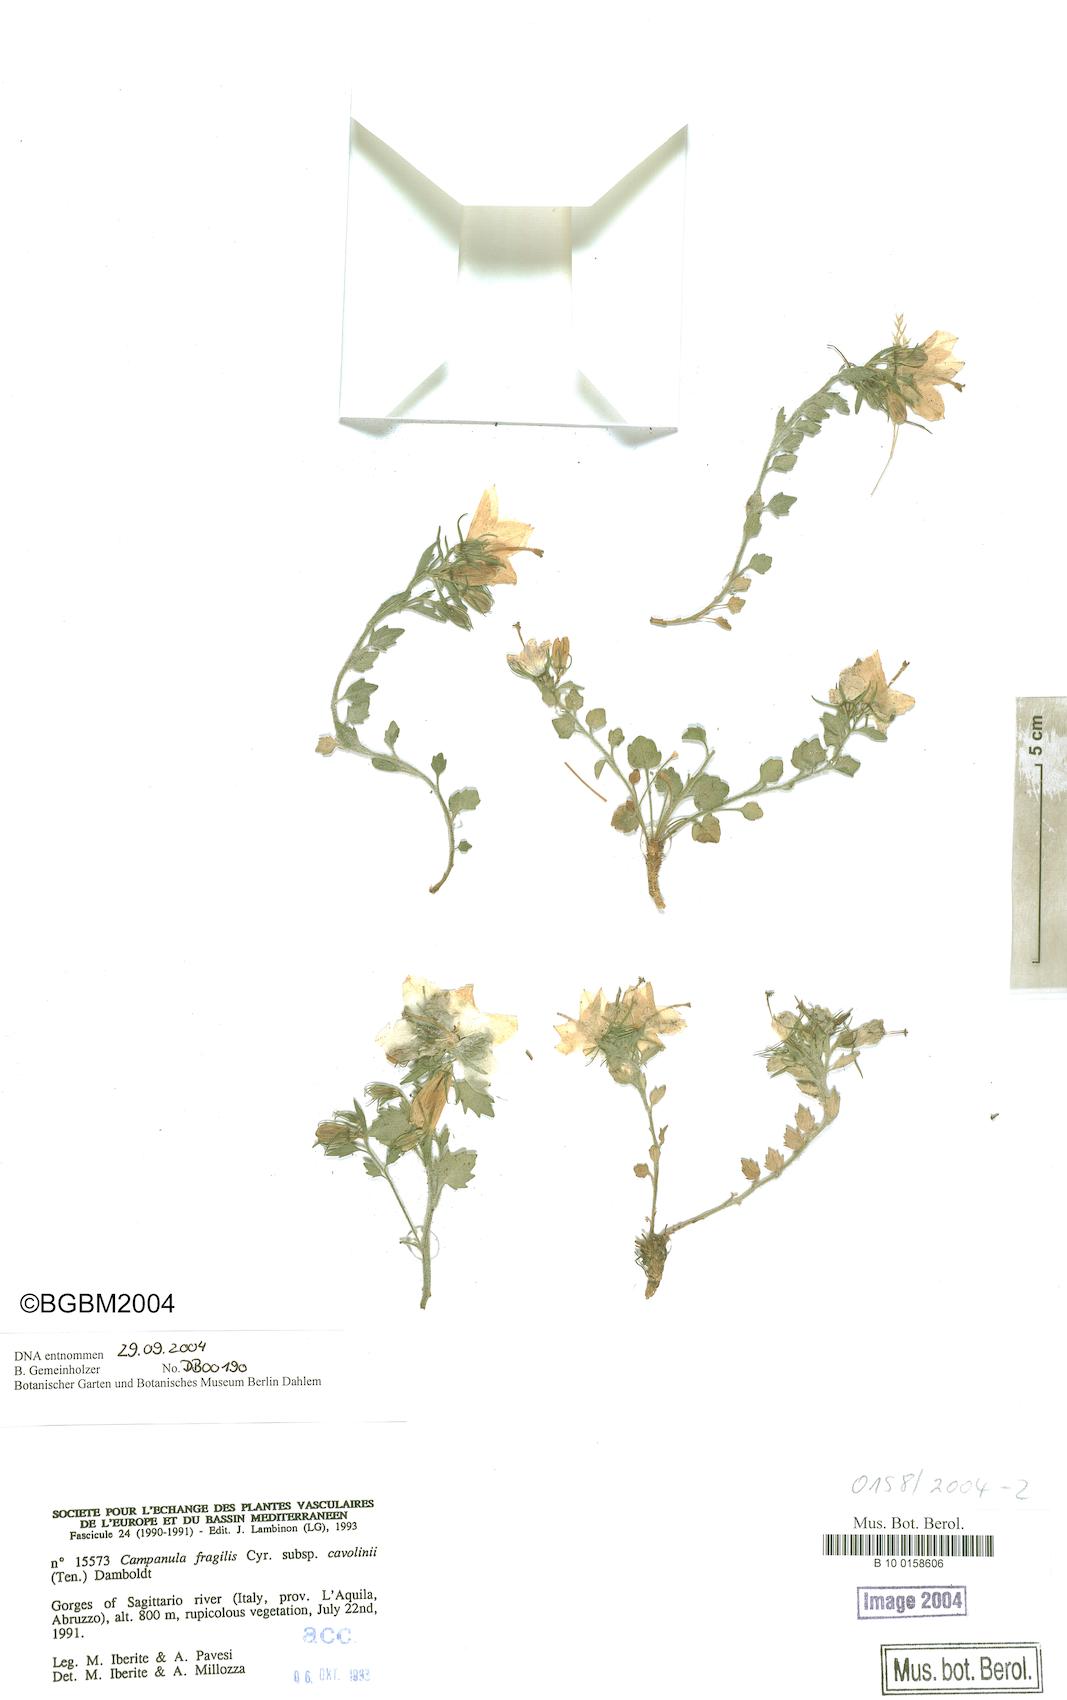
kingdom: Plantae
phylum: Tracheophyta
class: Magnoliopsida
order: Asterales
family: Campanulaceae
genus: Campanula
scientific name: Campanula fragilis
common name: Italian bellflower
